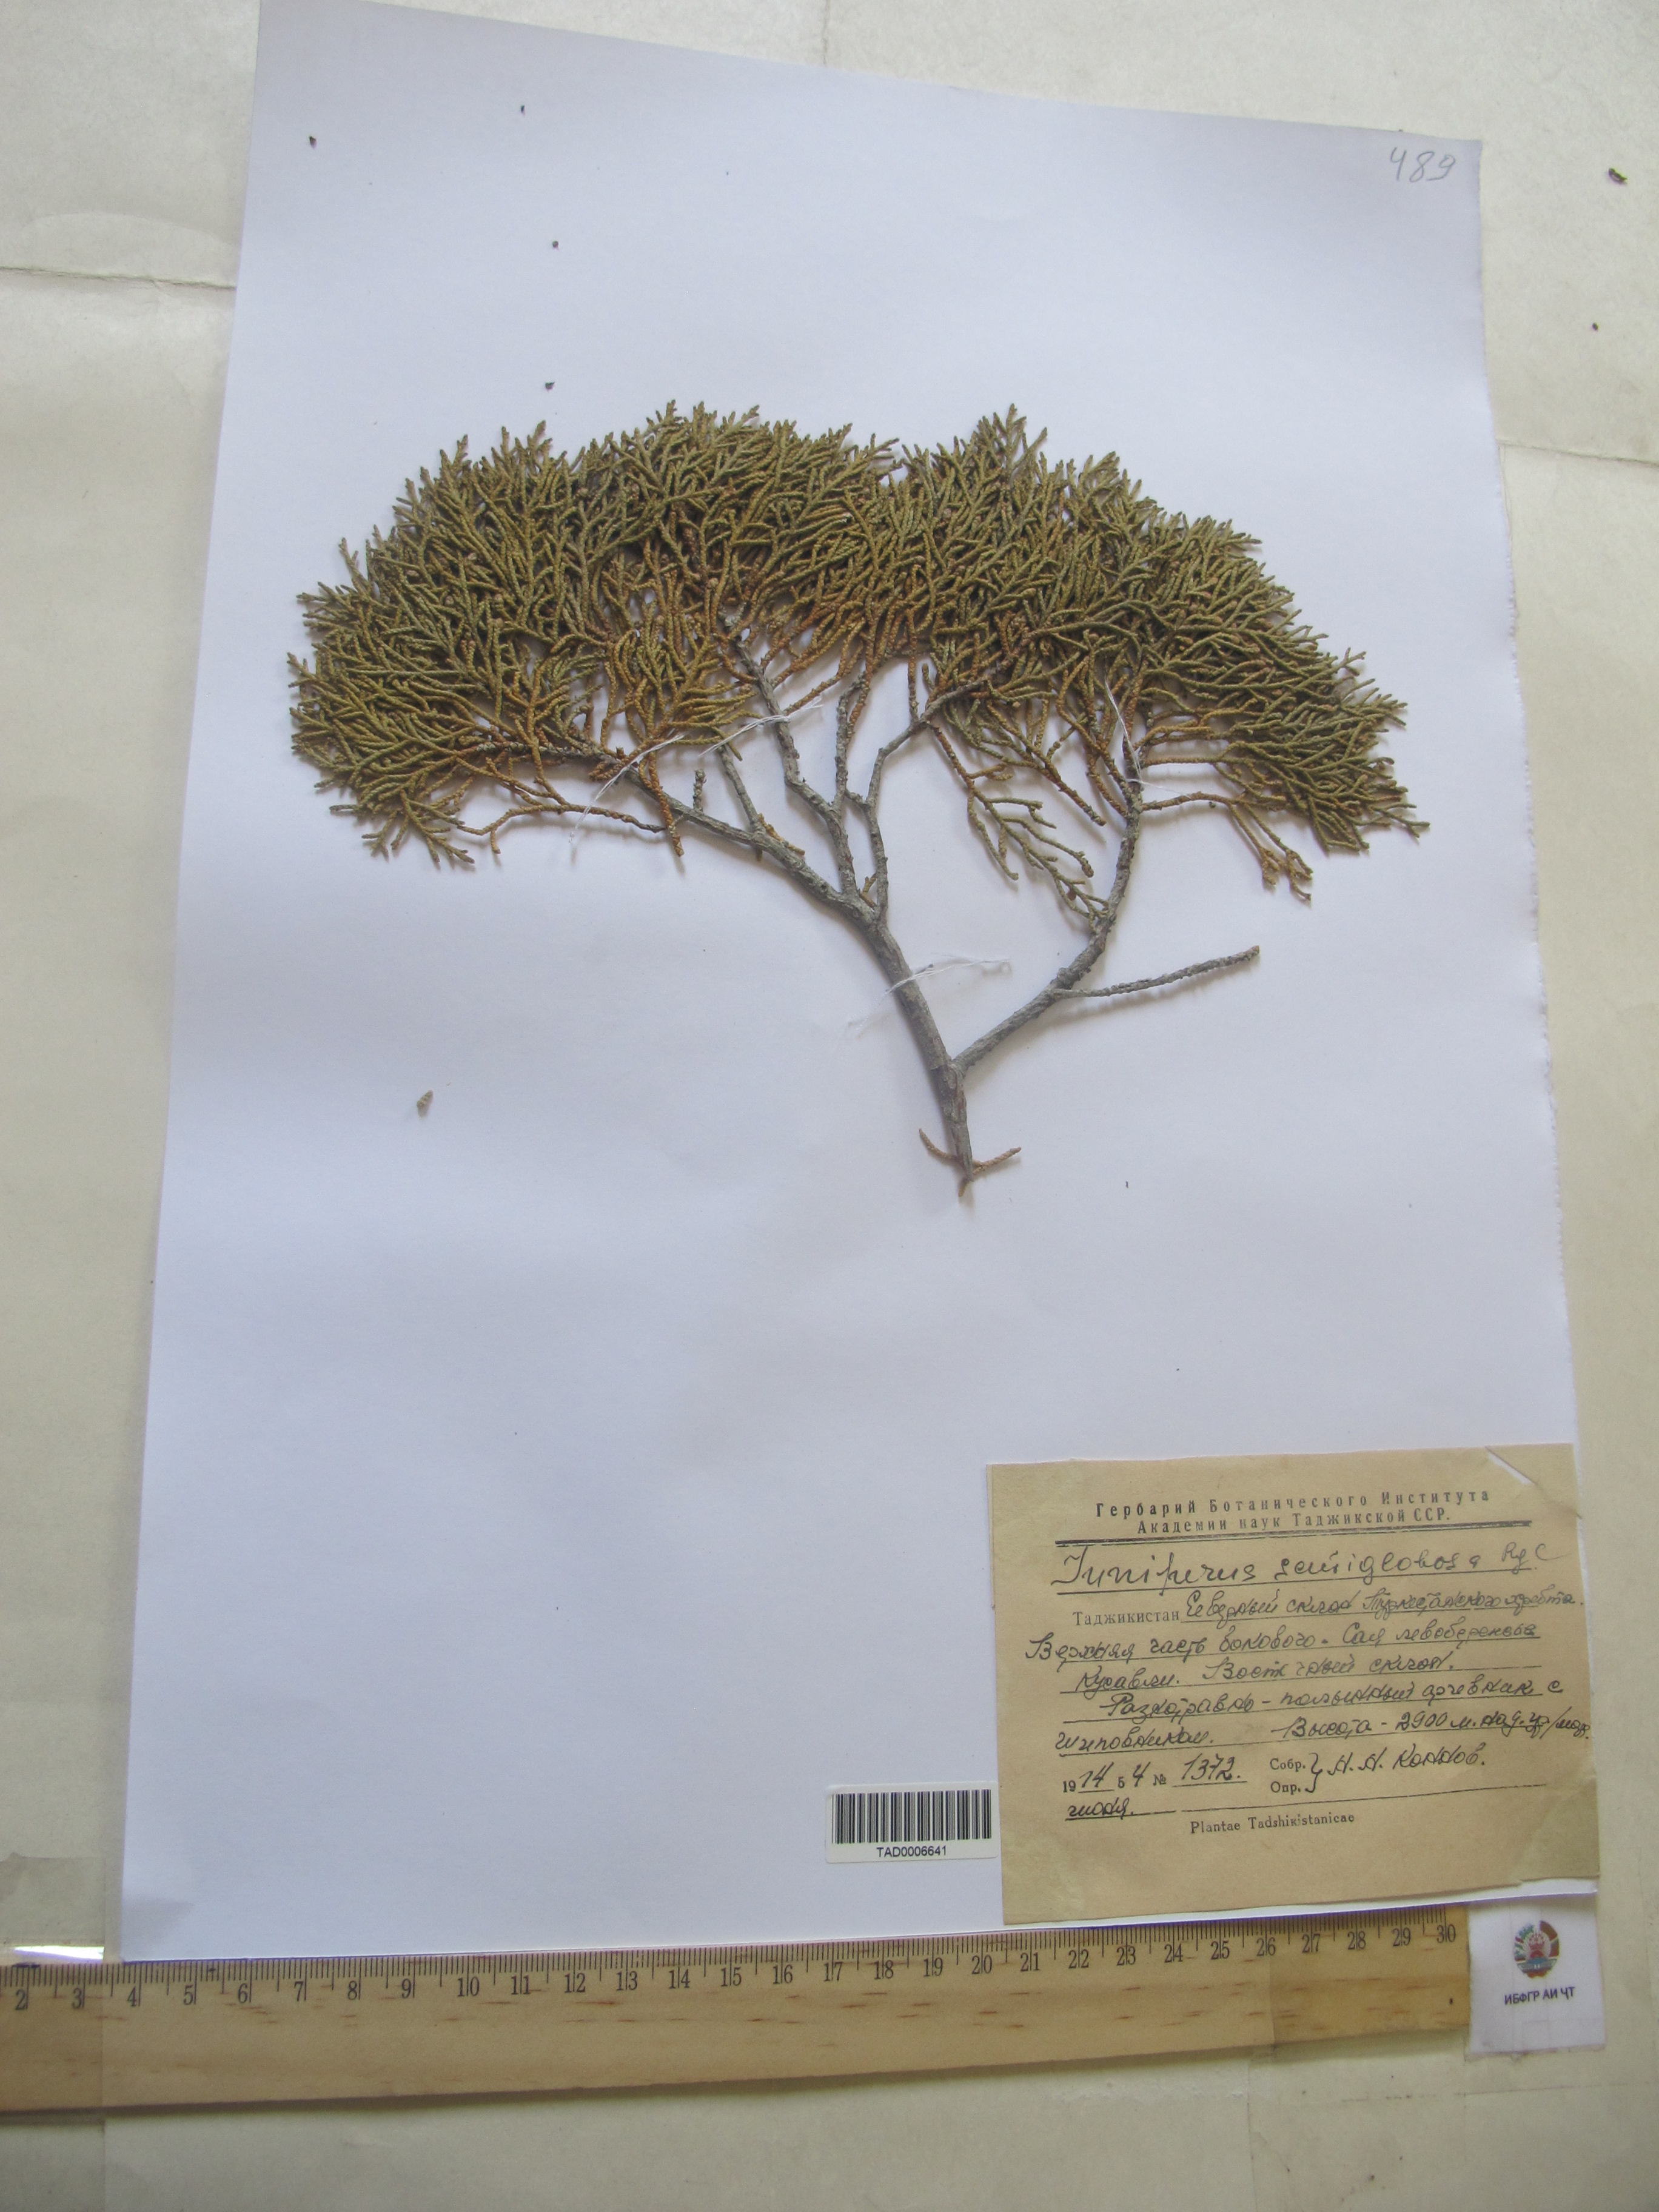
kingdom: Plantae
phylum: Tracheophyta
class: Pinopsida
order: Pinales
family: Cupressaceae
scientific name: Cupressaceae
